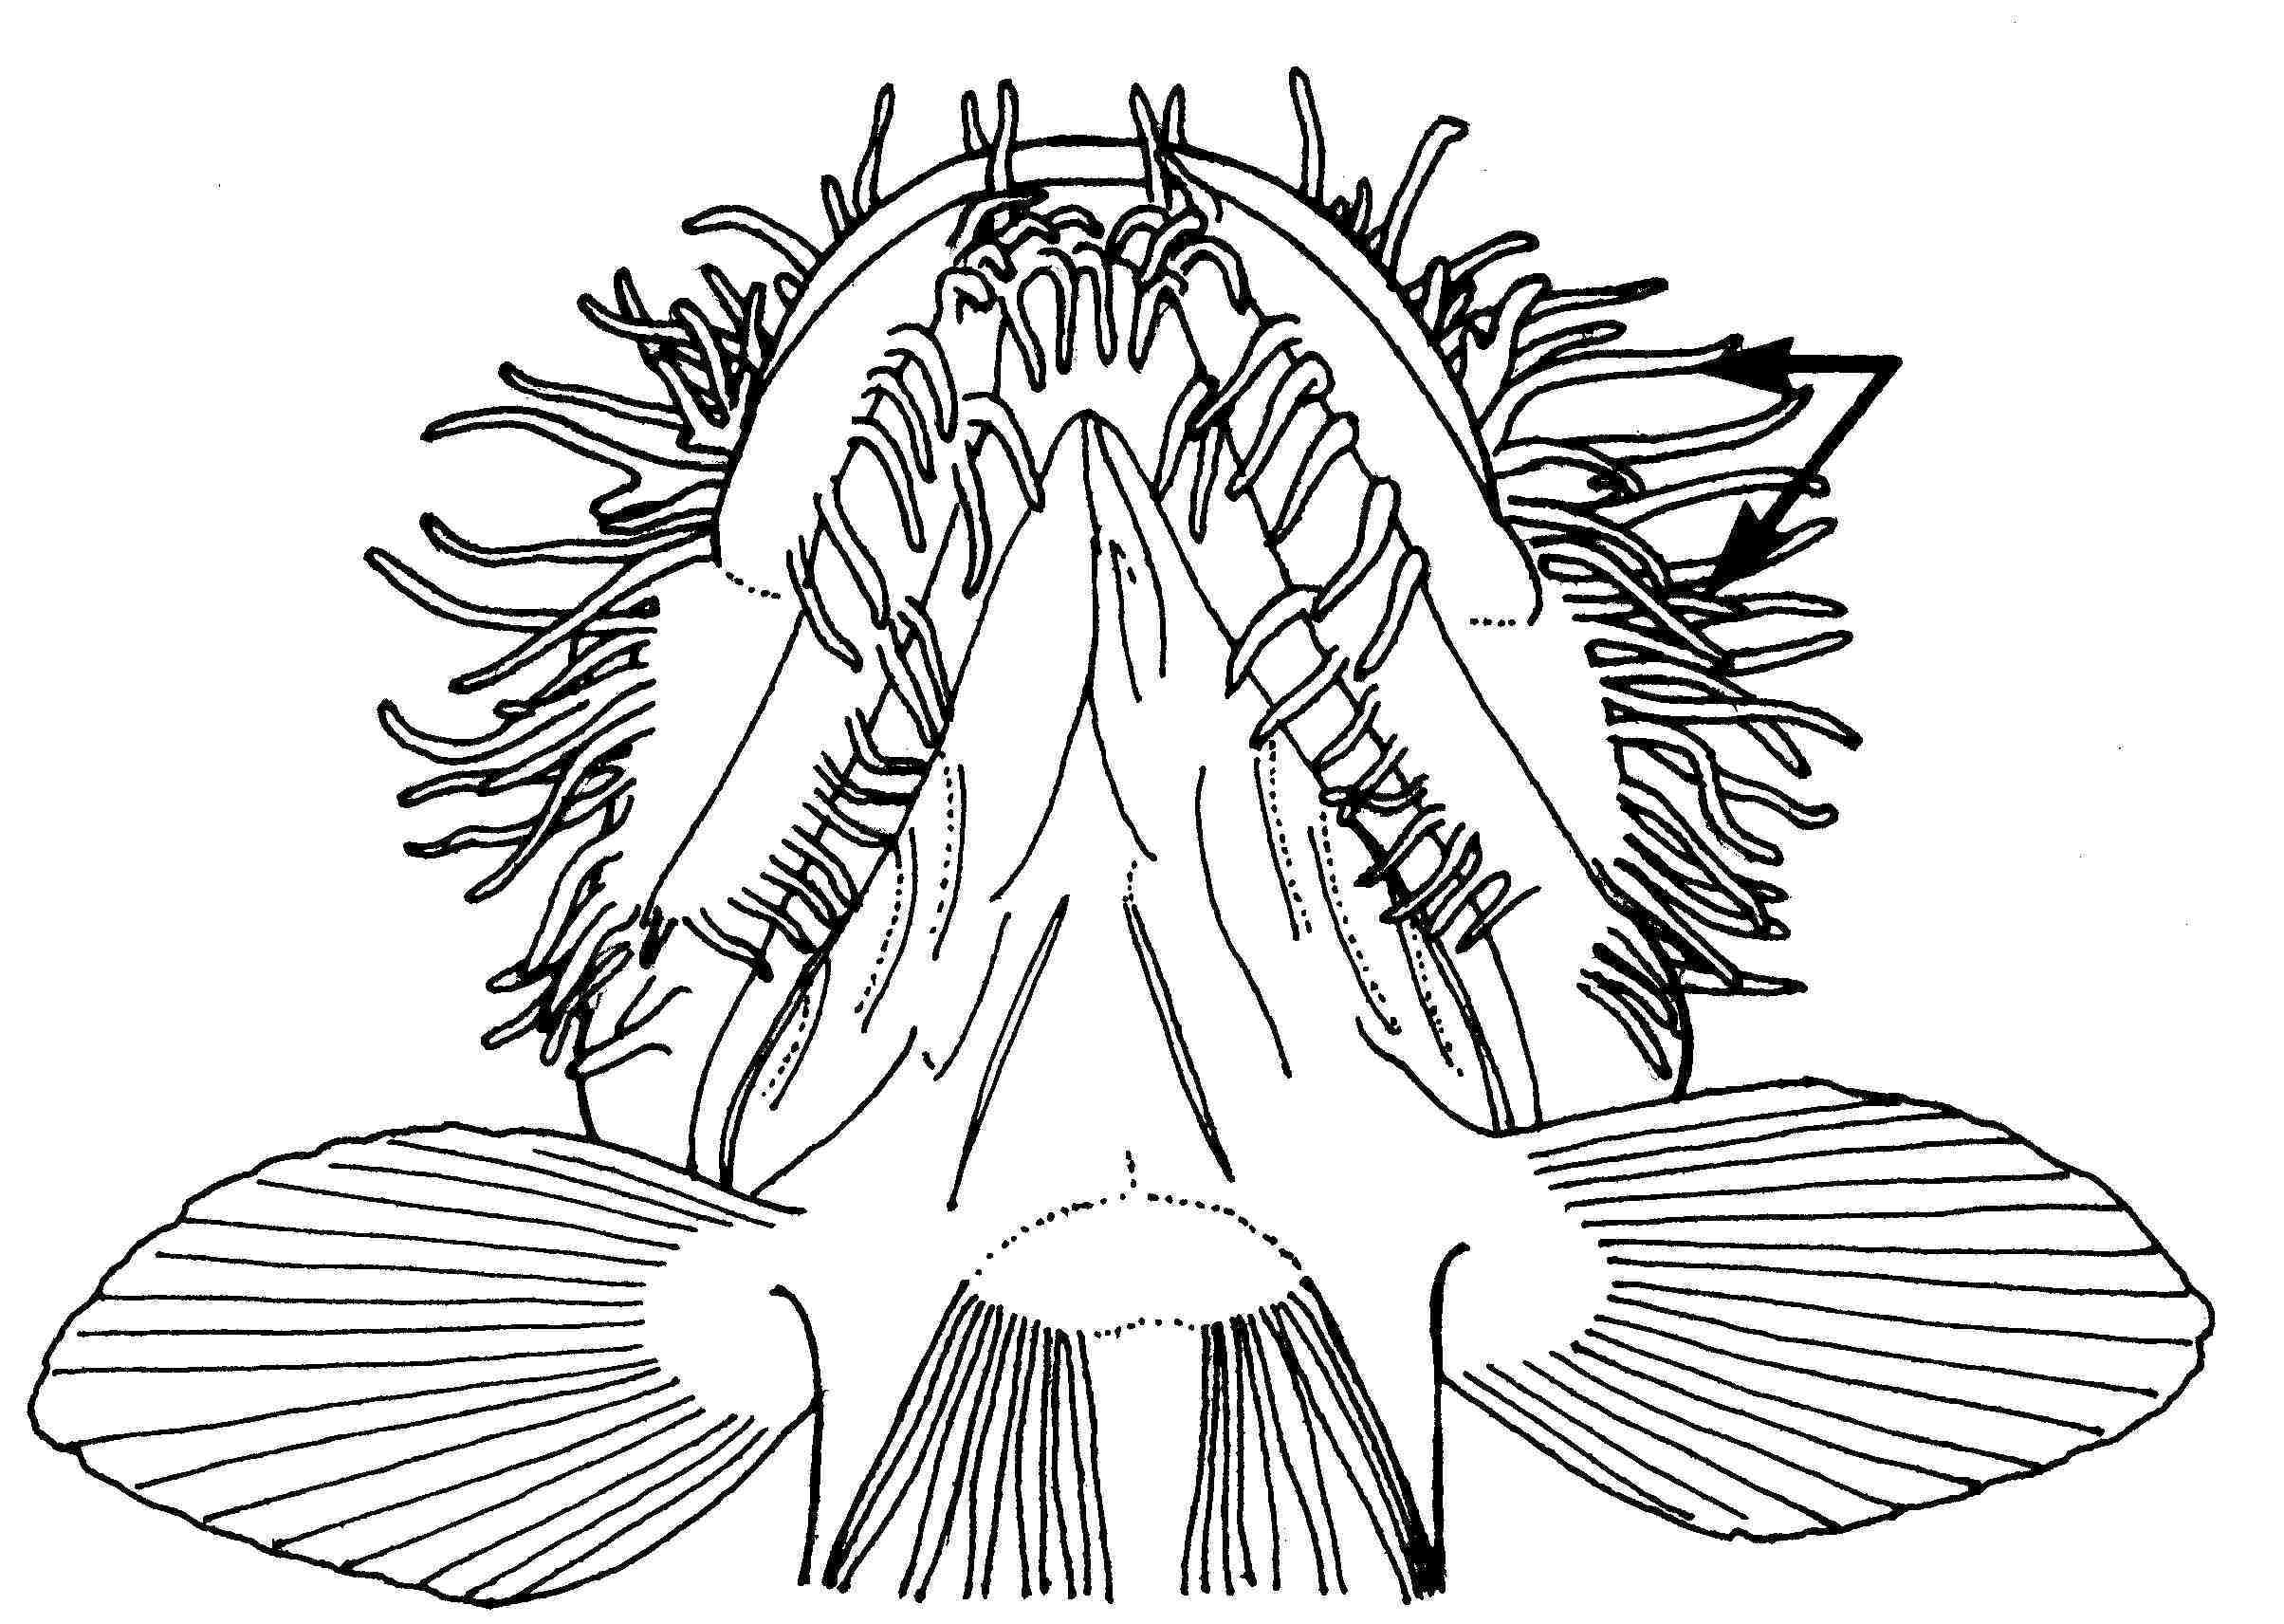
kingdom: Animalia
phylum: Chordata
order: Perciformes
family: Gobiidae
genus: Barbuligobius
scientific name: Barbuligobius boehlkei
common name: Bearded goby
